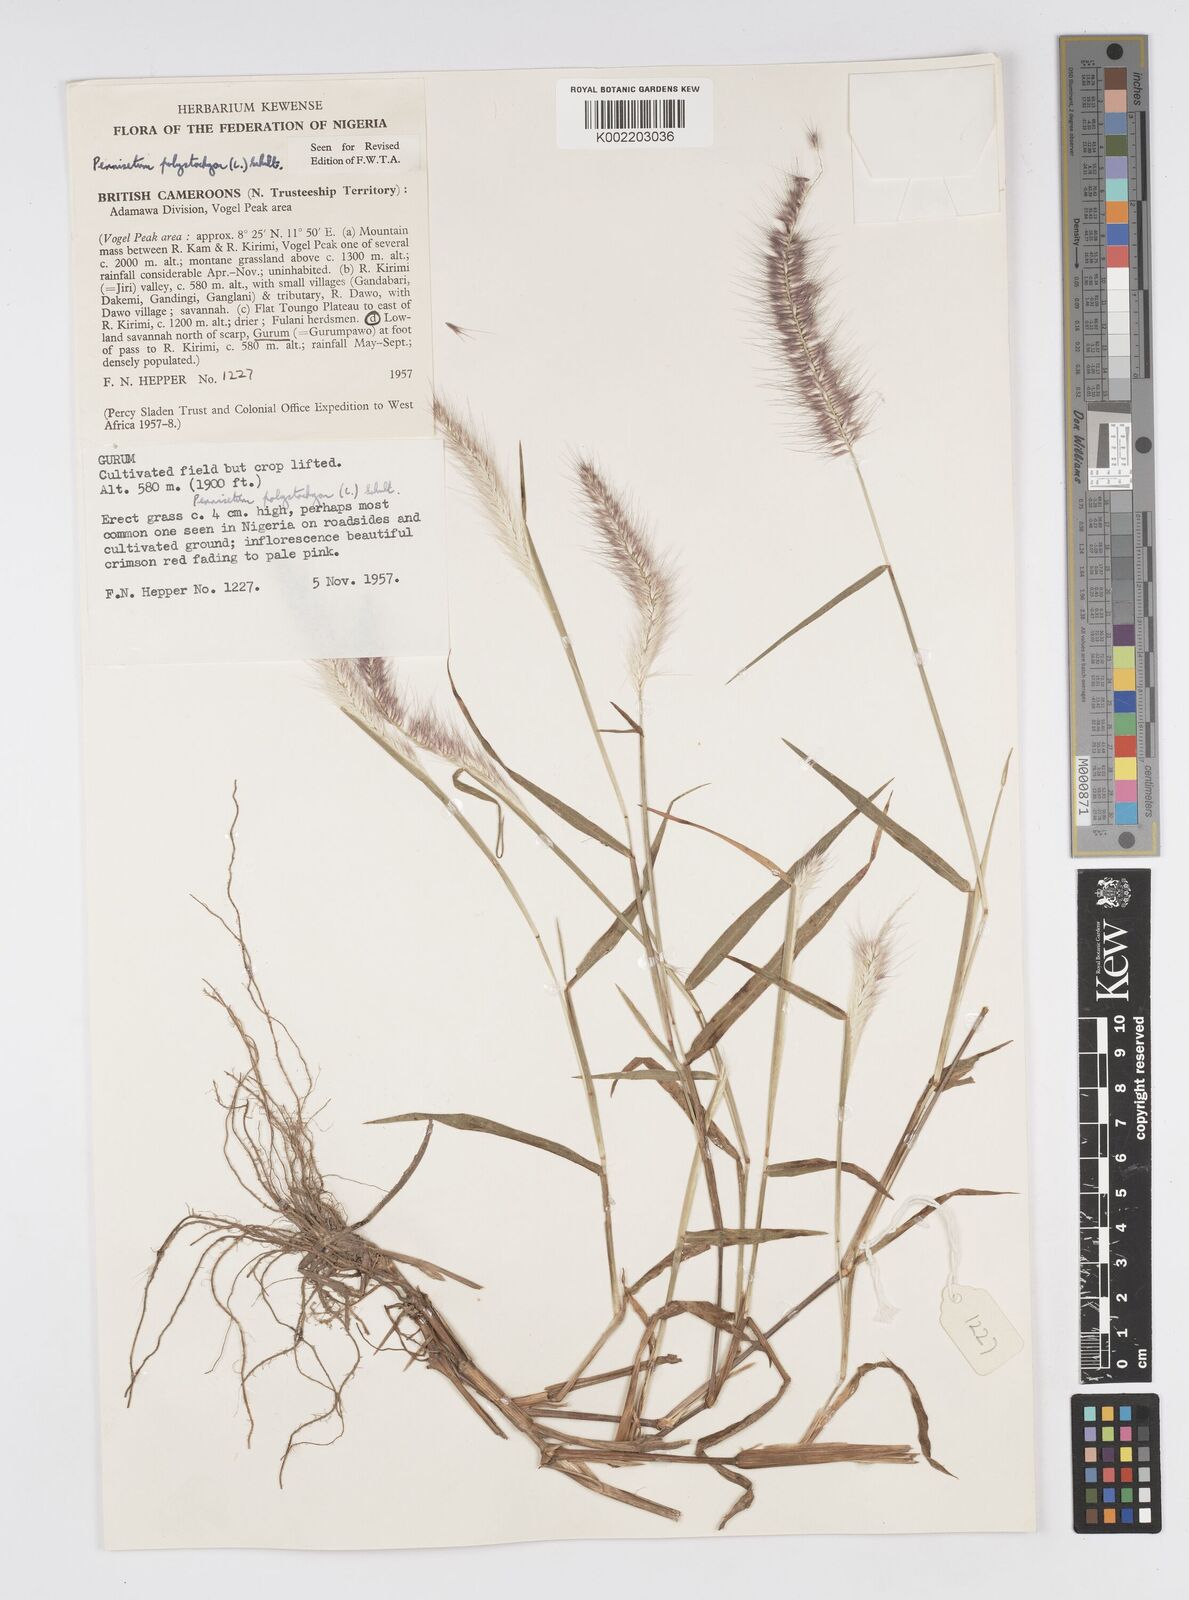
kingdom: Plantae
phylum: Tracheophyta
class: Liliopsida
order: Poales
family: Poaceae
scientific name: Poaceae
